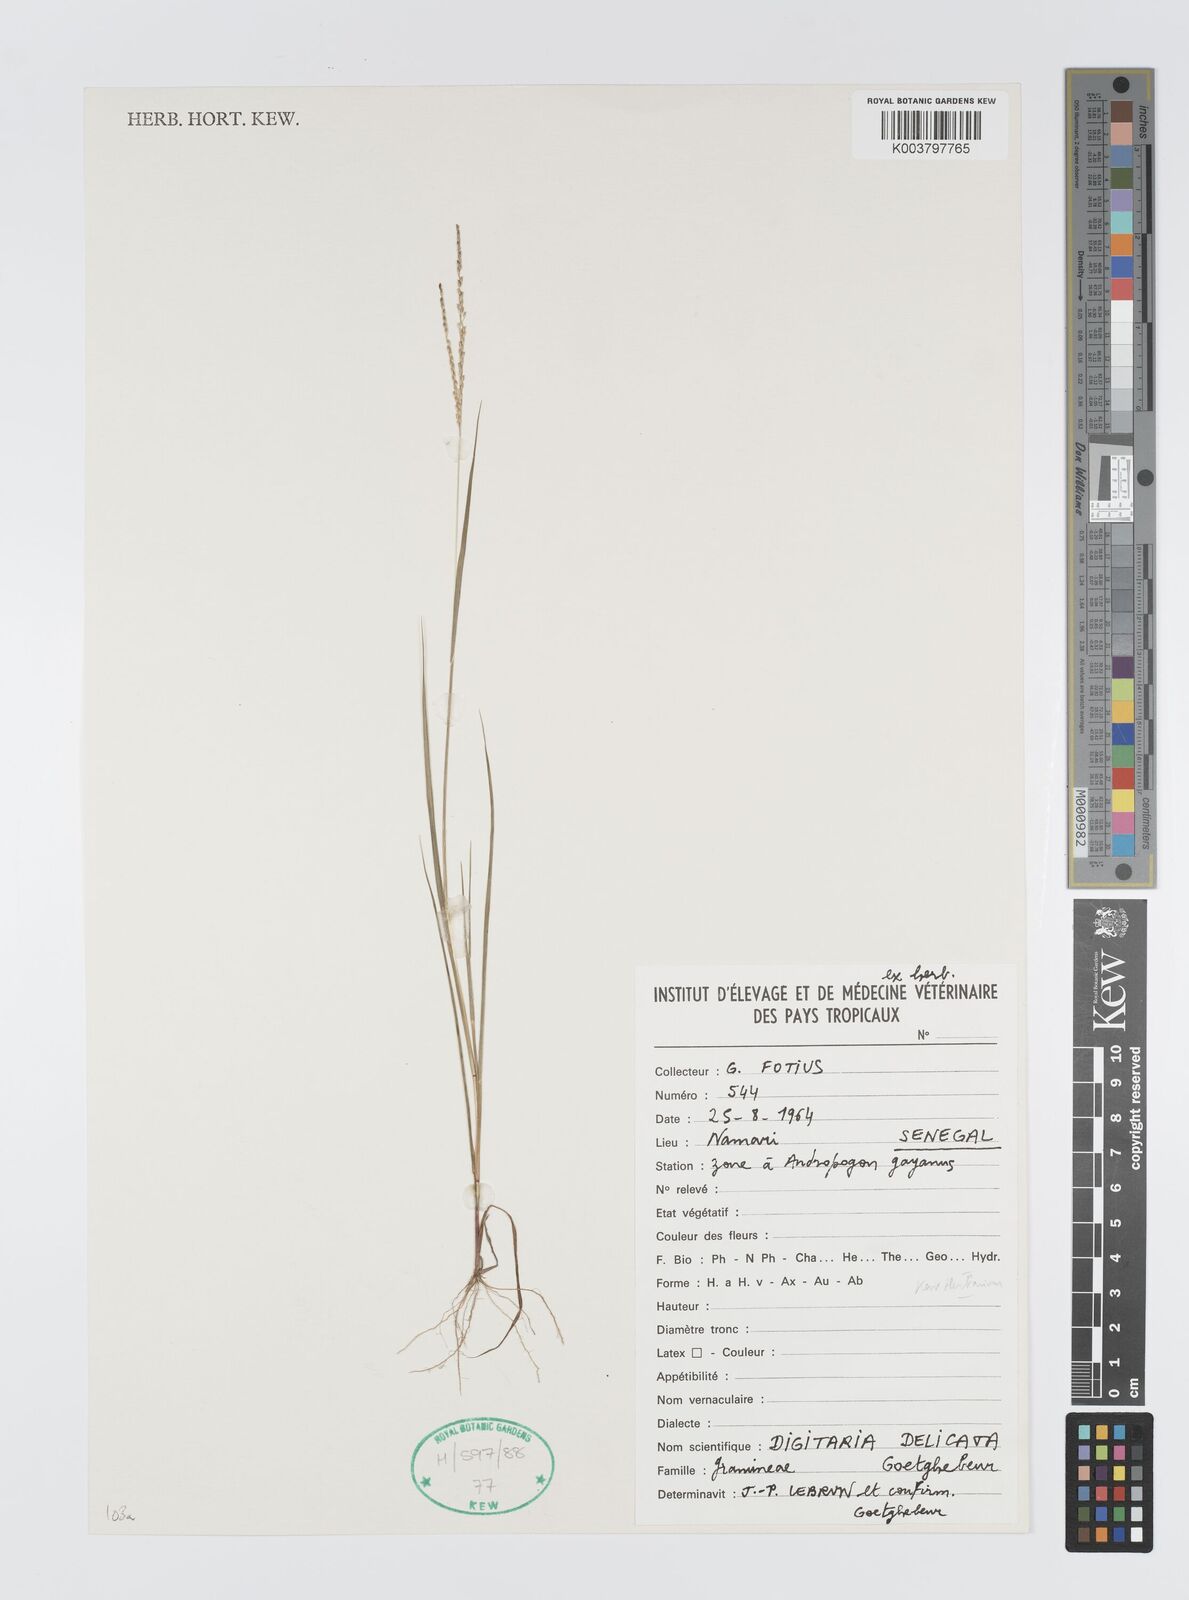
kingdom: Plantae
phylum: Tracheophyta
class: Liliopsida
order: Poales
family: Poaceae
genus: Digitaria
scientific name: Digitaria delicata
